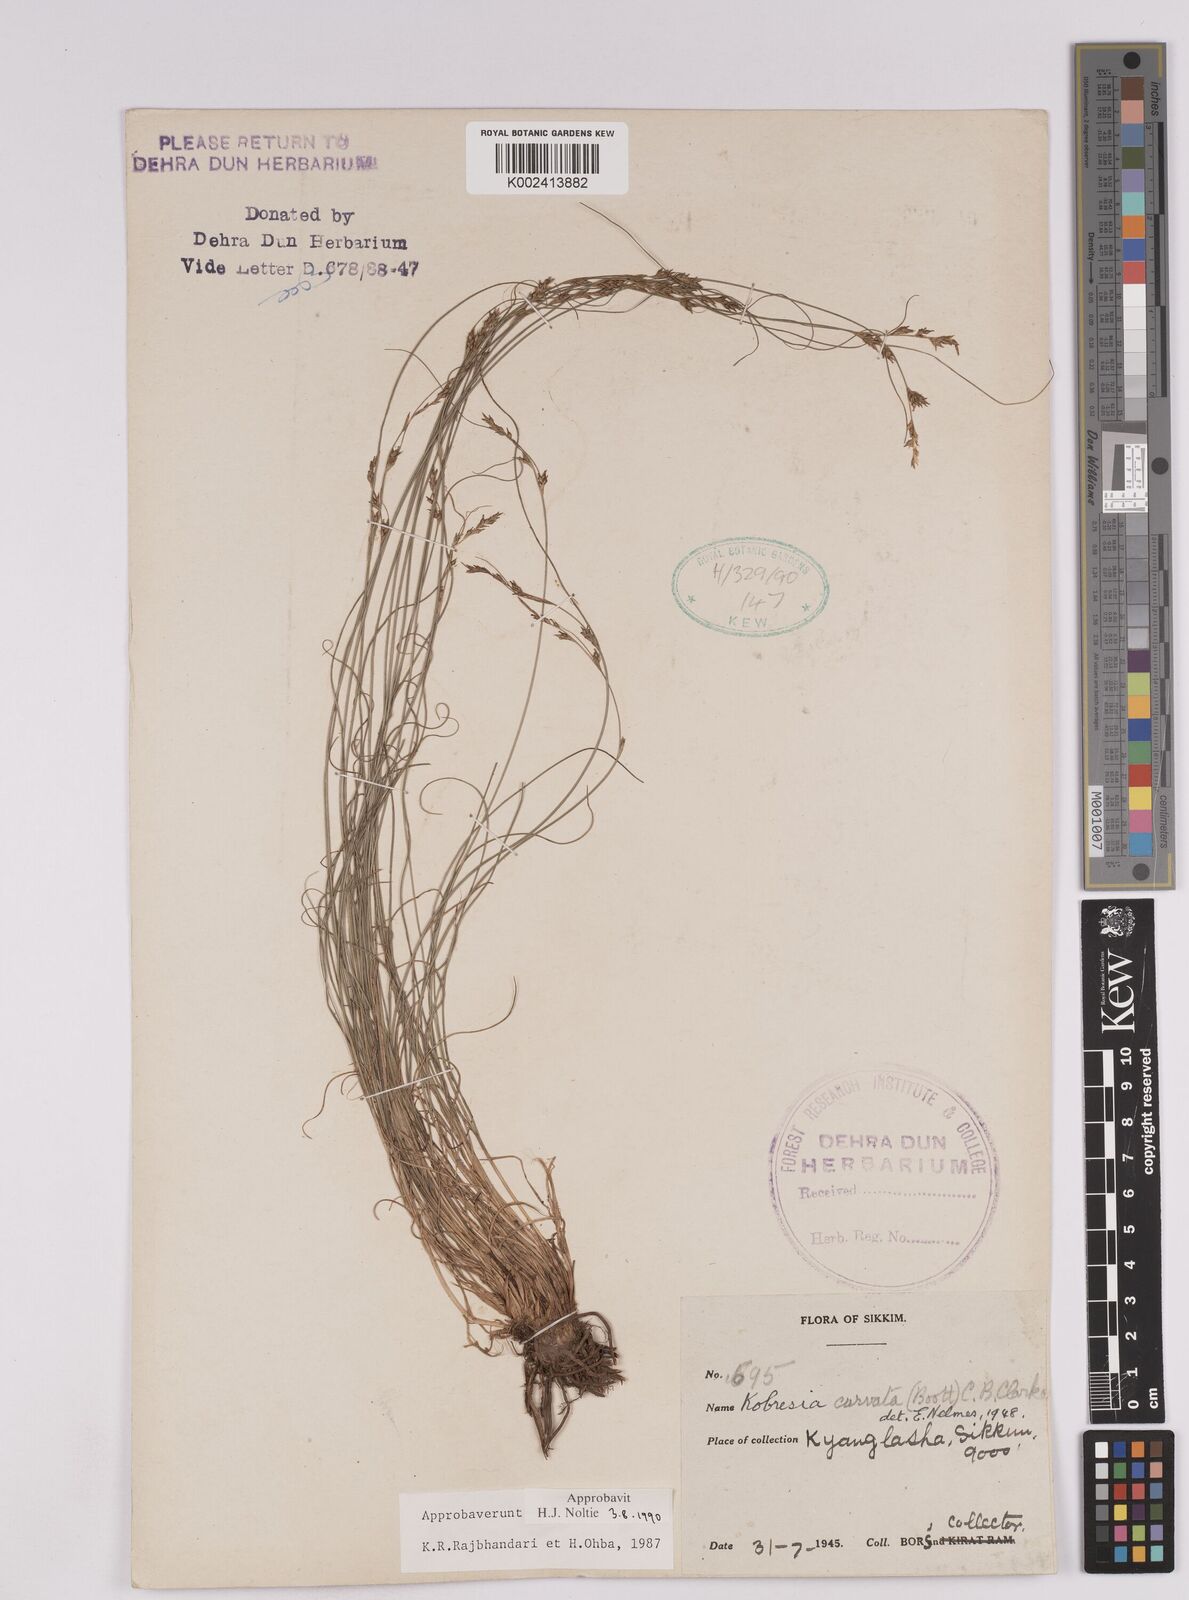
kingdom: Plantae
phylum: Tracheophyta
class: Liliopsida
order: Poales
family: Cyperaceae
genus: Carex
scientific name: Carex bonatiana
